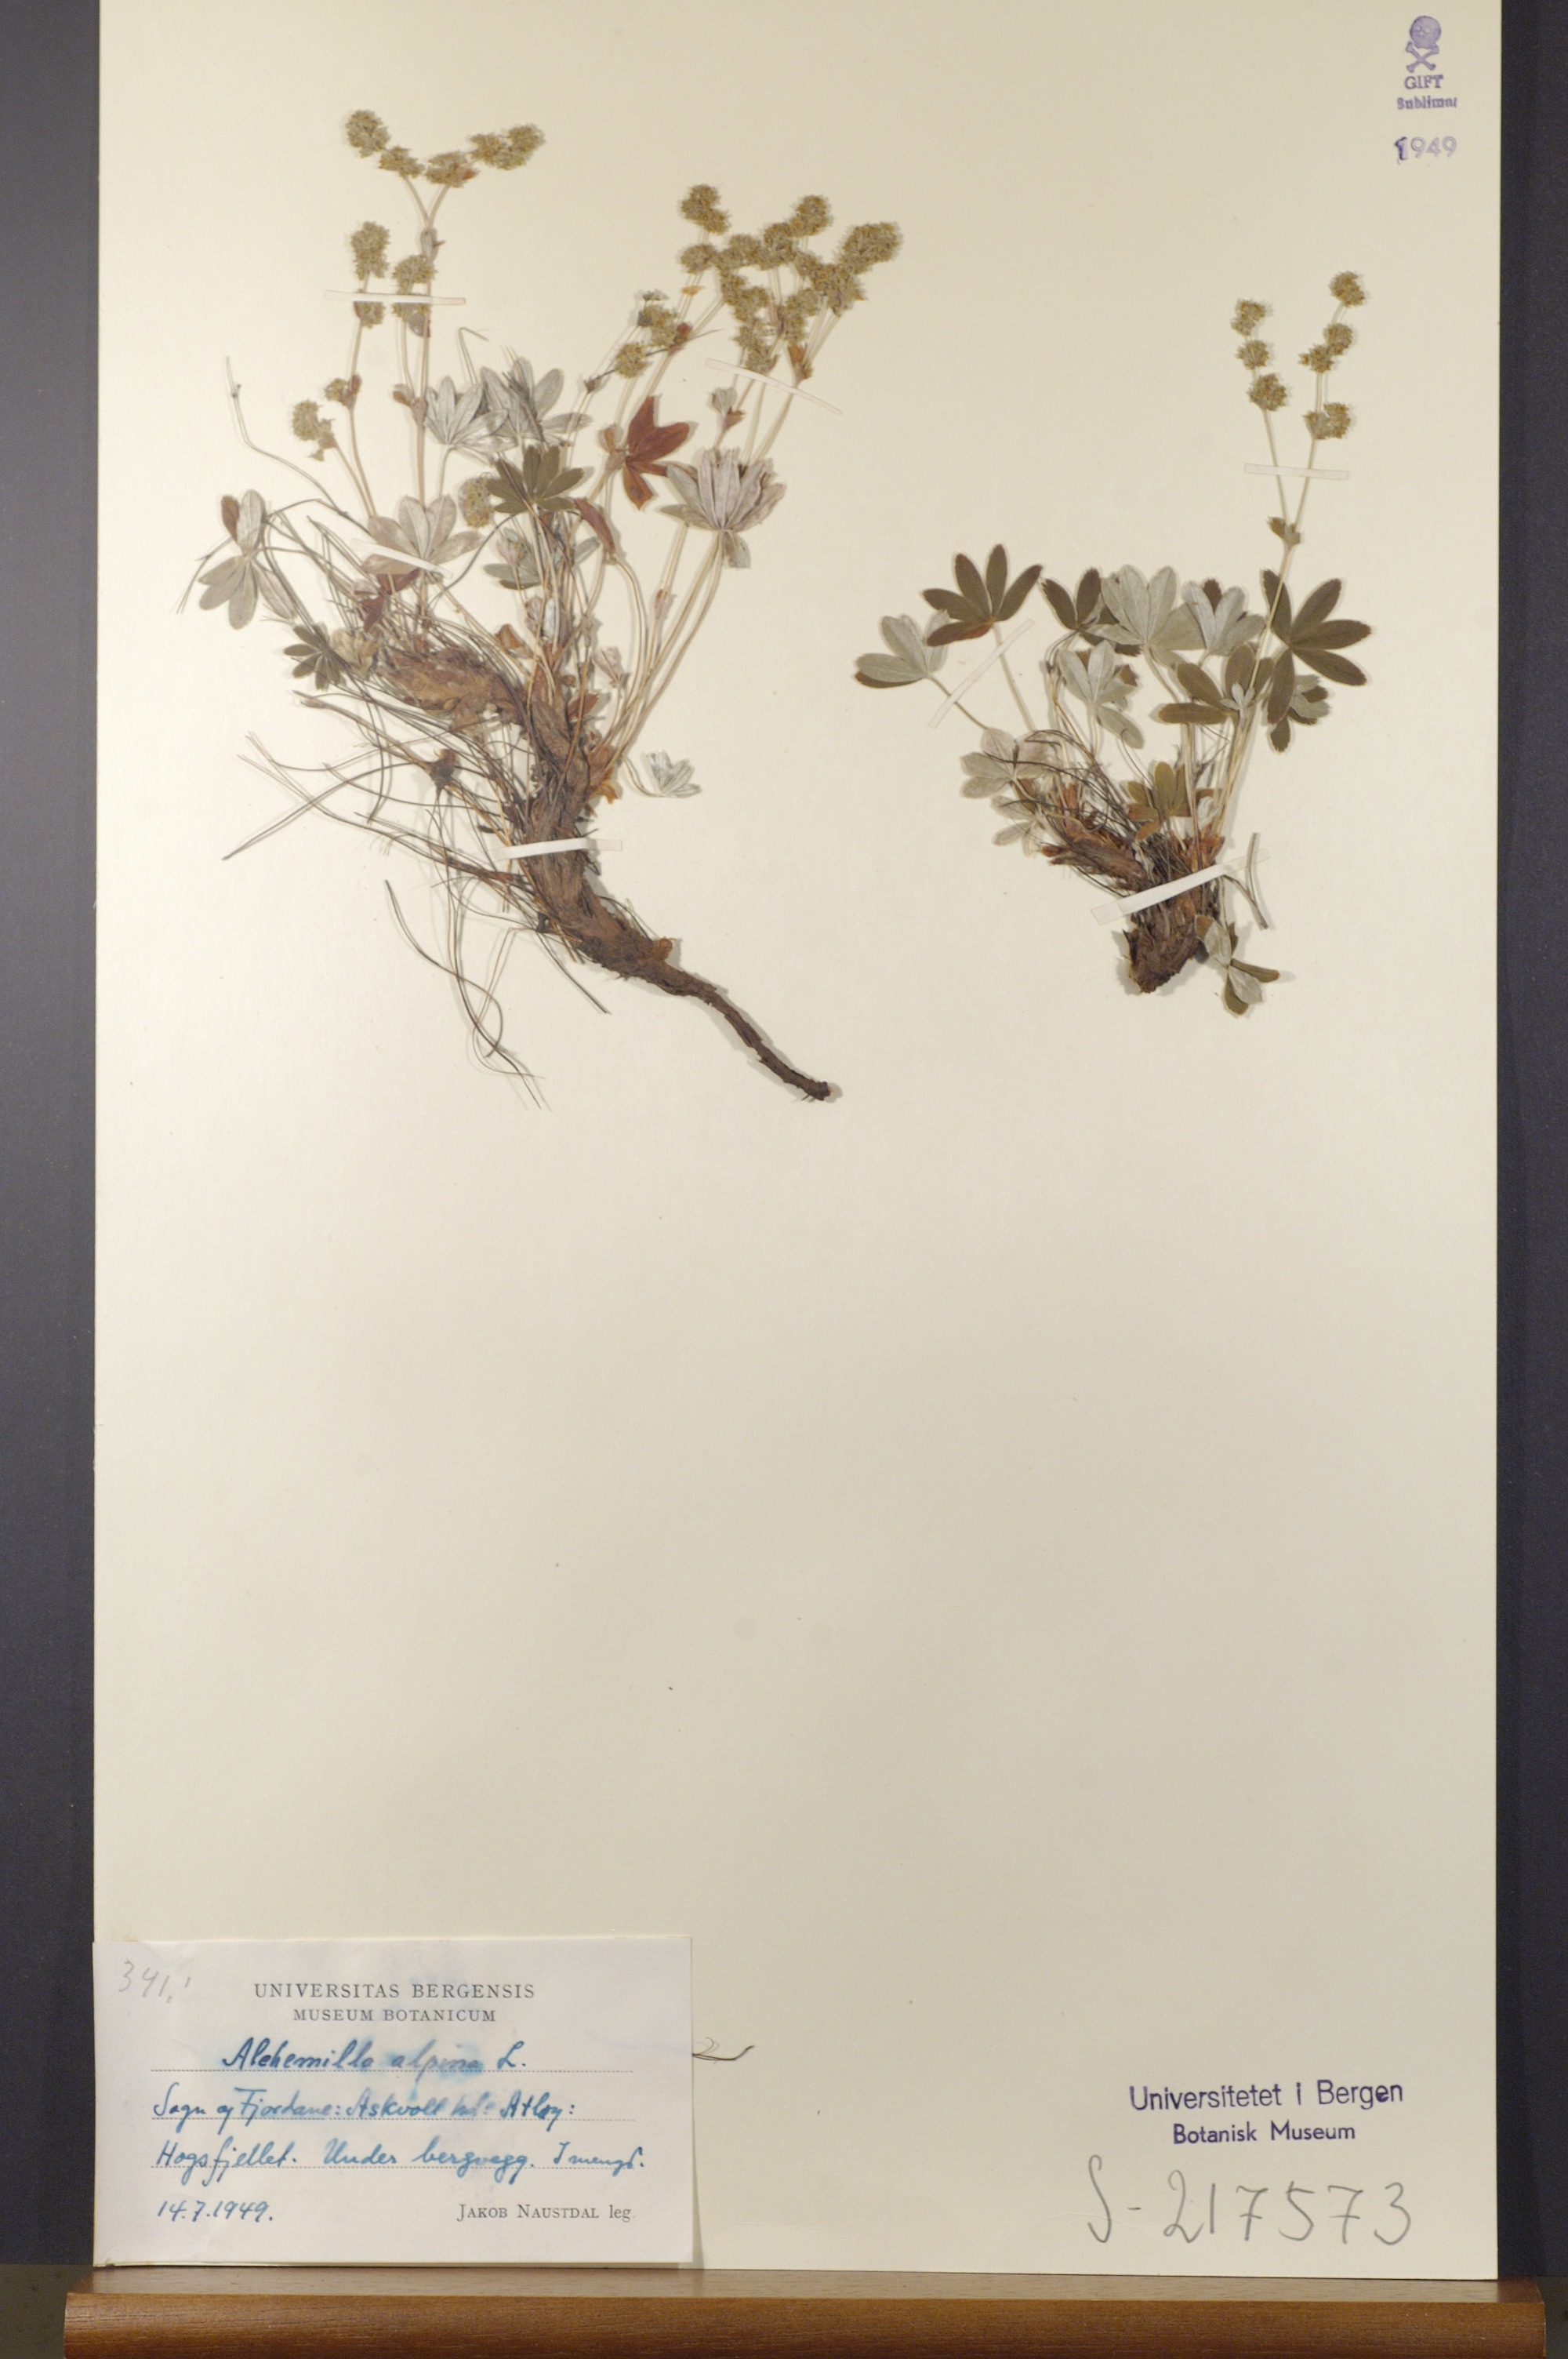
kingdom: Plantae
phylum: Tracheophyta
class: Magnoliopsida
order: Rosales
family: Rosaceae
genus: Alchemilla
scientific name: Alchemilla alpina
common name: Alpine lady's-mantle
